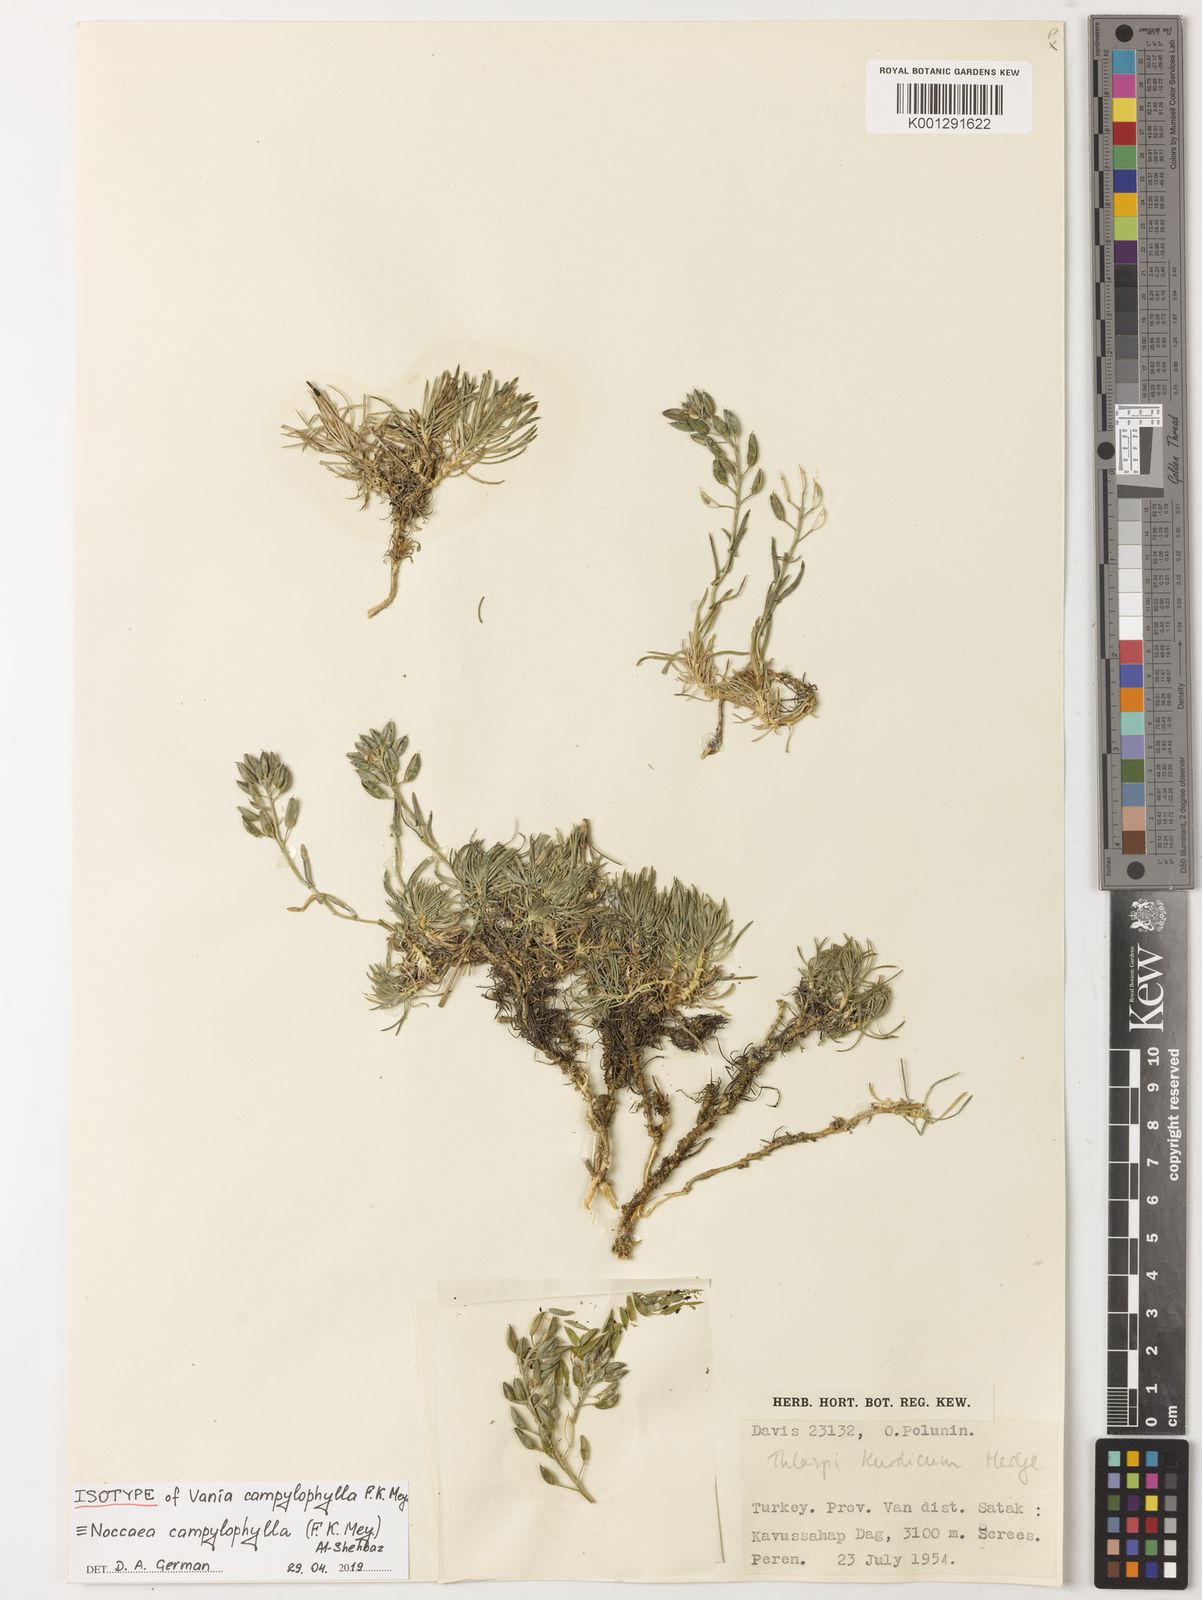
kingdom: Plantae
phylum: Tracheophyta
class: Magnoliopsida
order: Brassicales
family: Brassicaceae
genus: Noccaea
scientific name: Noccaea campylophylla
